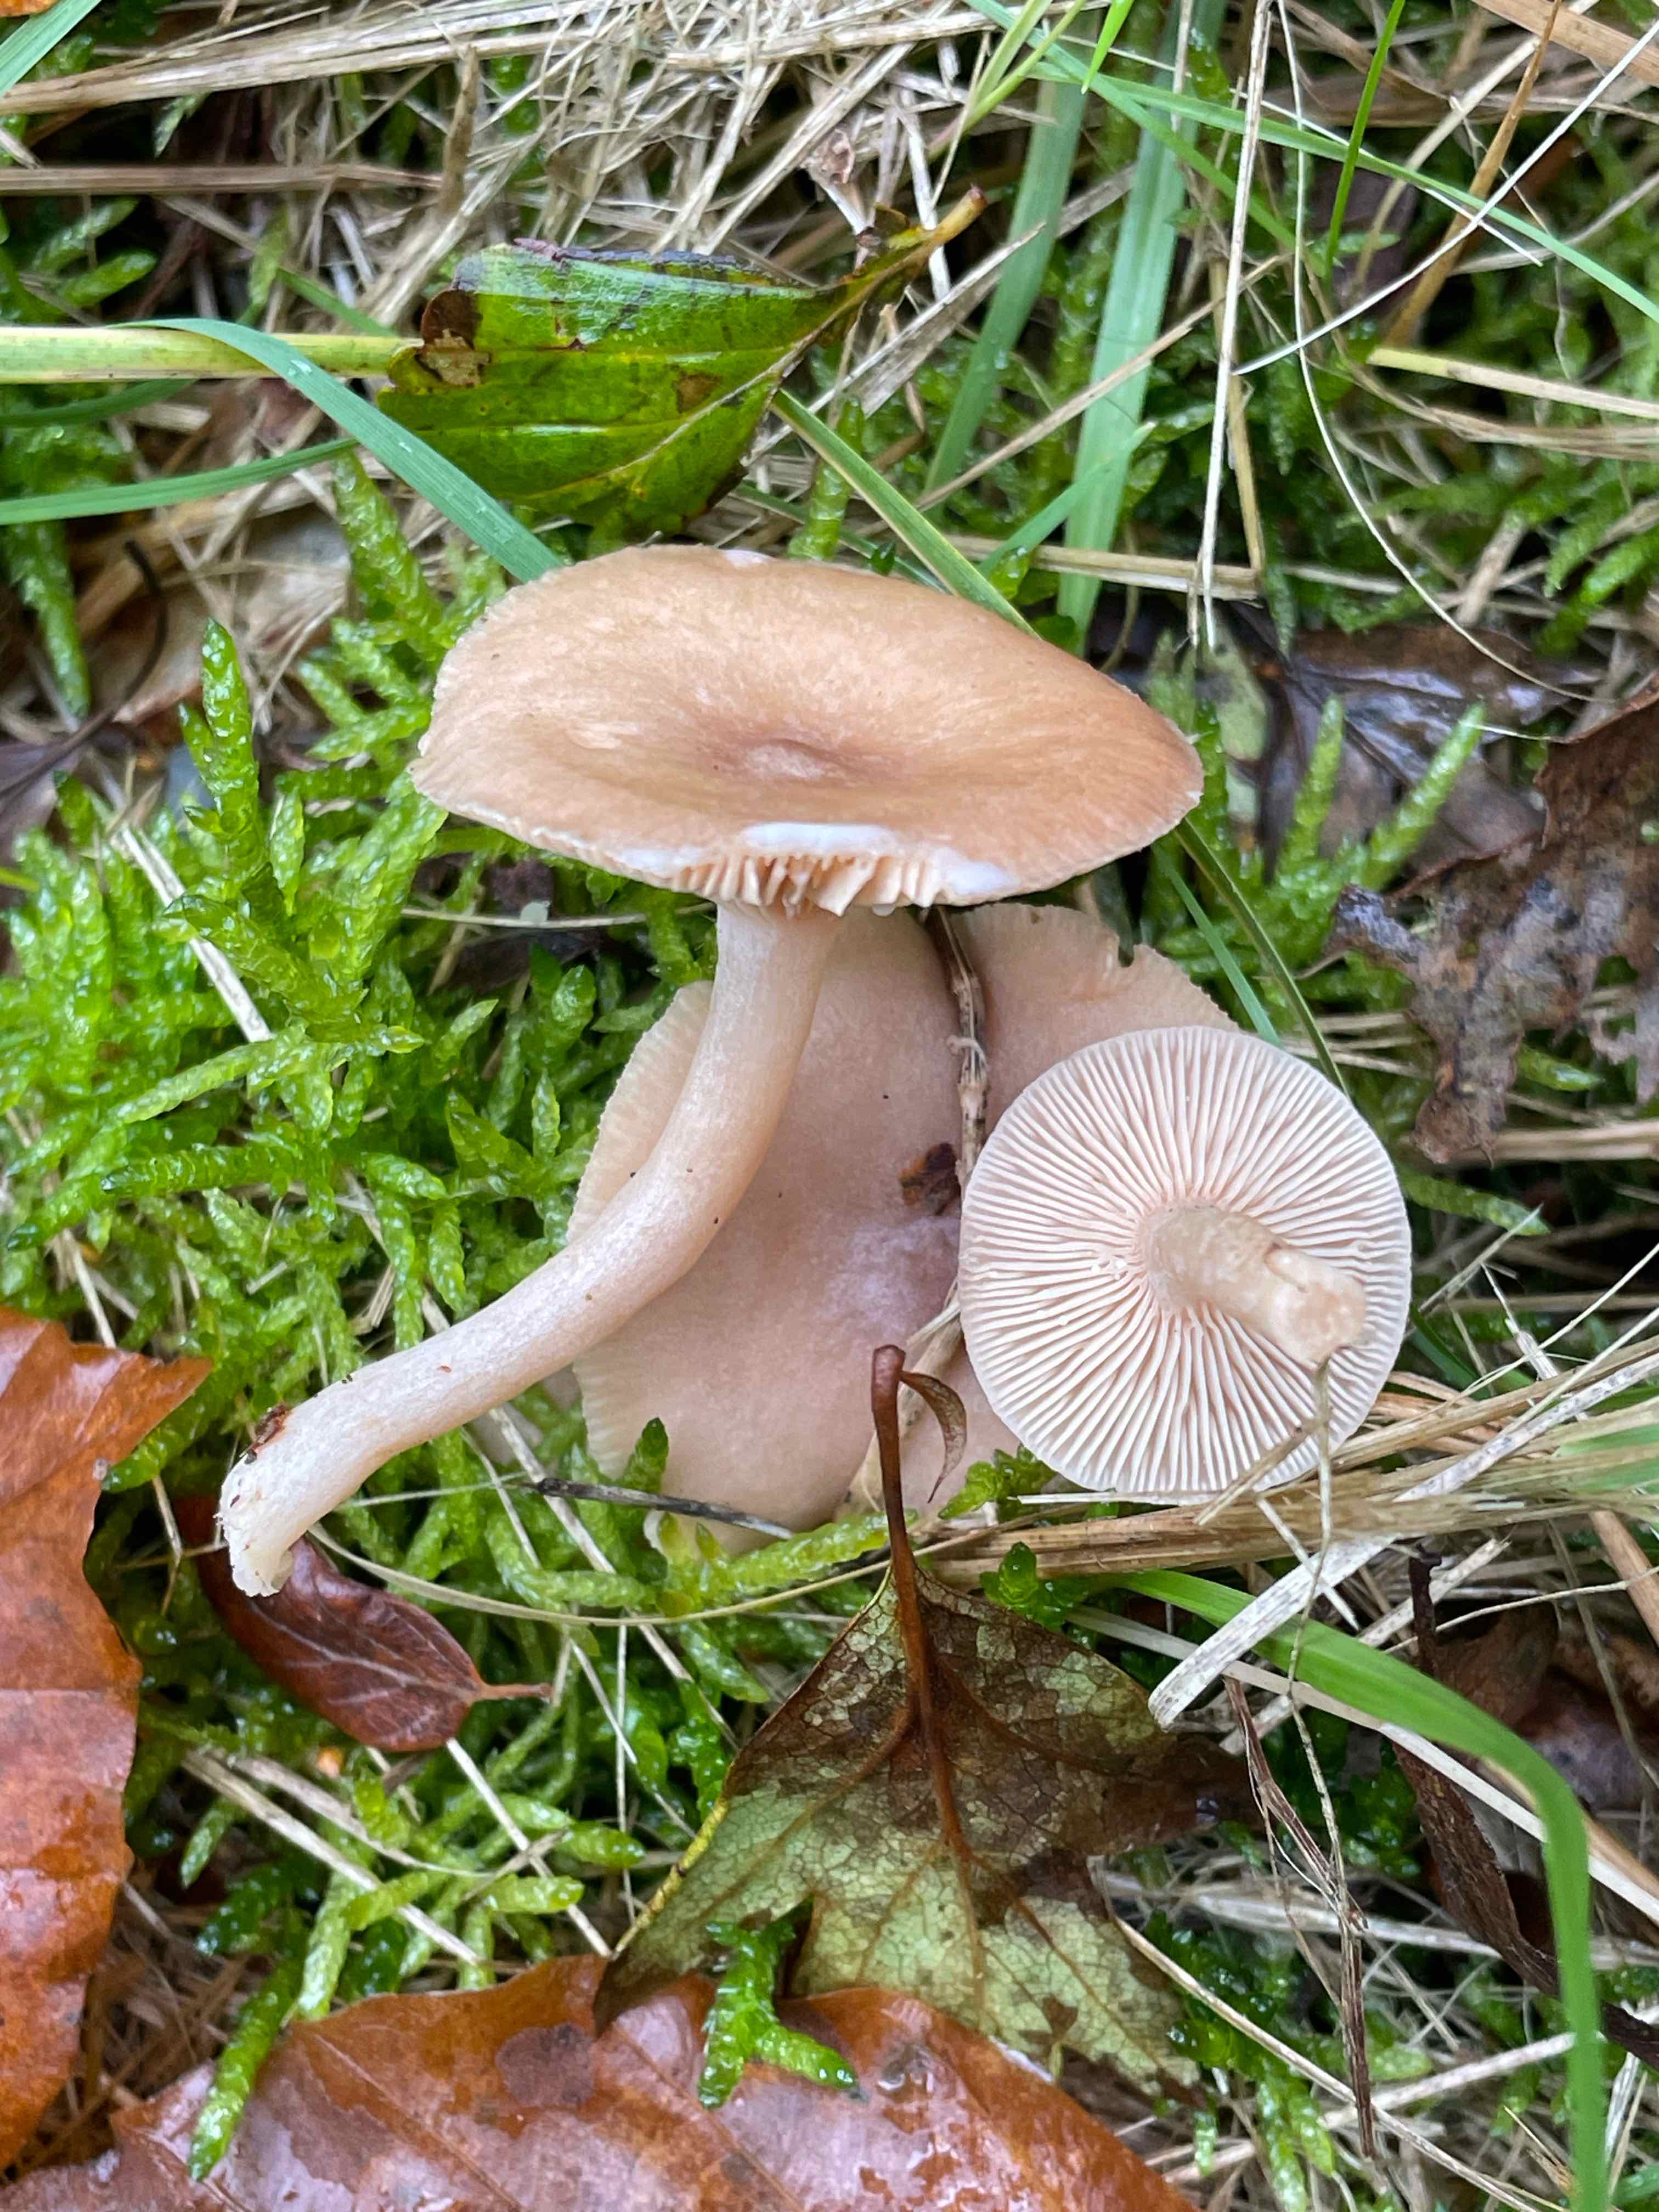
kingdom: Fungi
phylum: Basidiomycota
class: Agaricomycetes
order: Russulales
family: Russulaceae
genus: Lactarius
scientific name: Lactarius glyciosmus
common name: kokos-mælkehat
